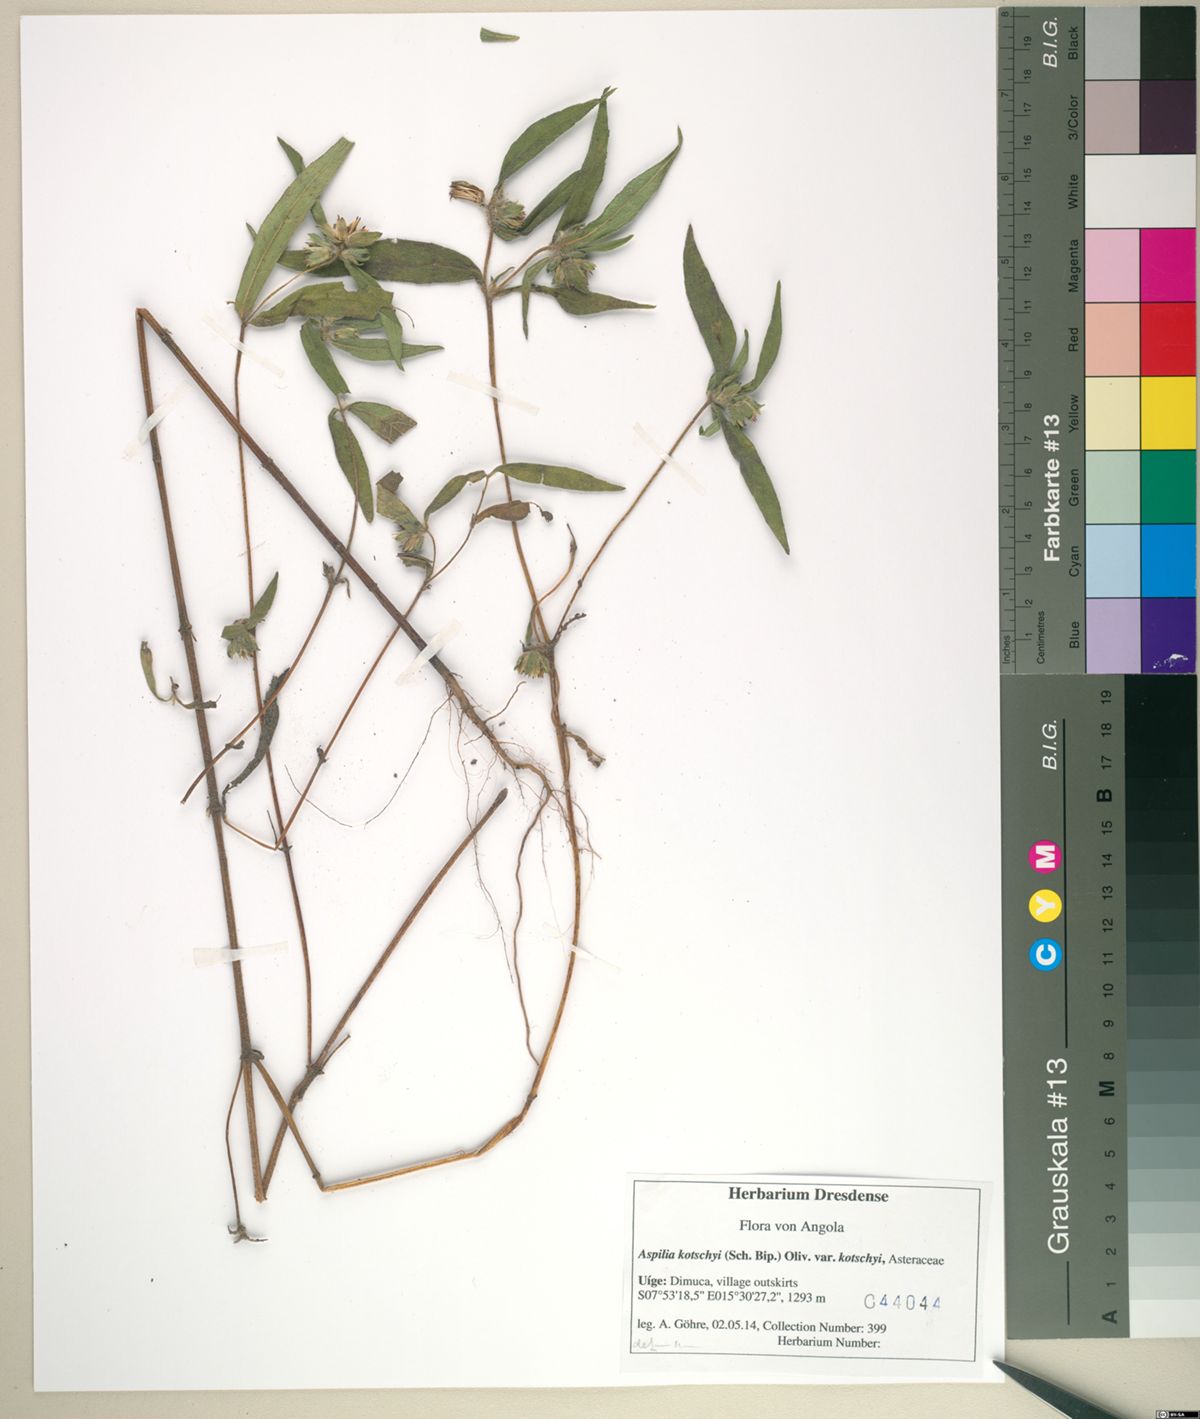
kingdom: Plantae
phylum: Tracheophyta
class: Magnoliopsida
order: Asterales
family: Asteraceae
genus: Aspilia
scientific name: Aspilia kotschyi
